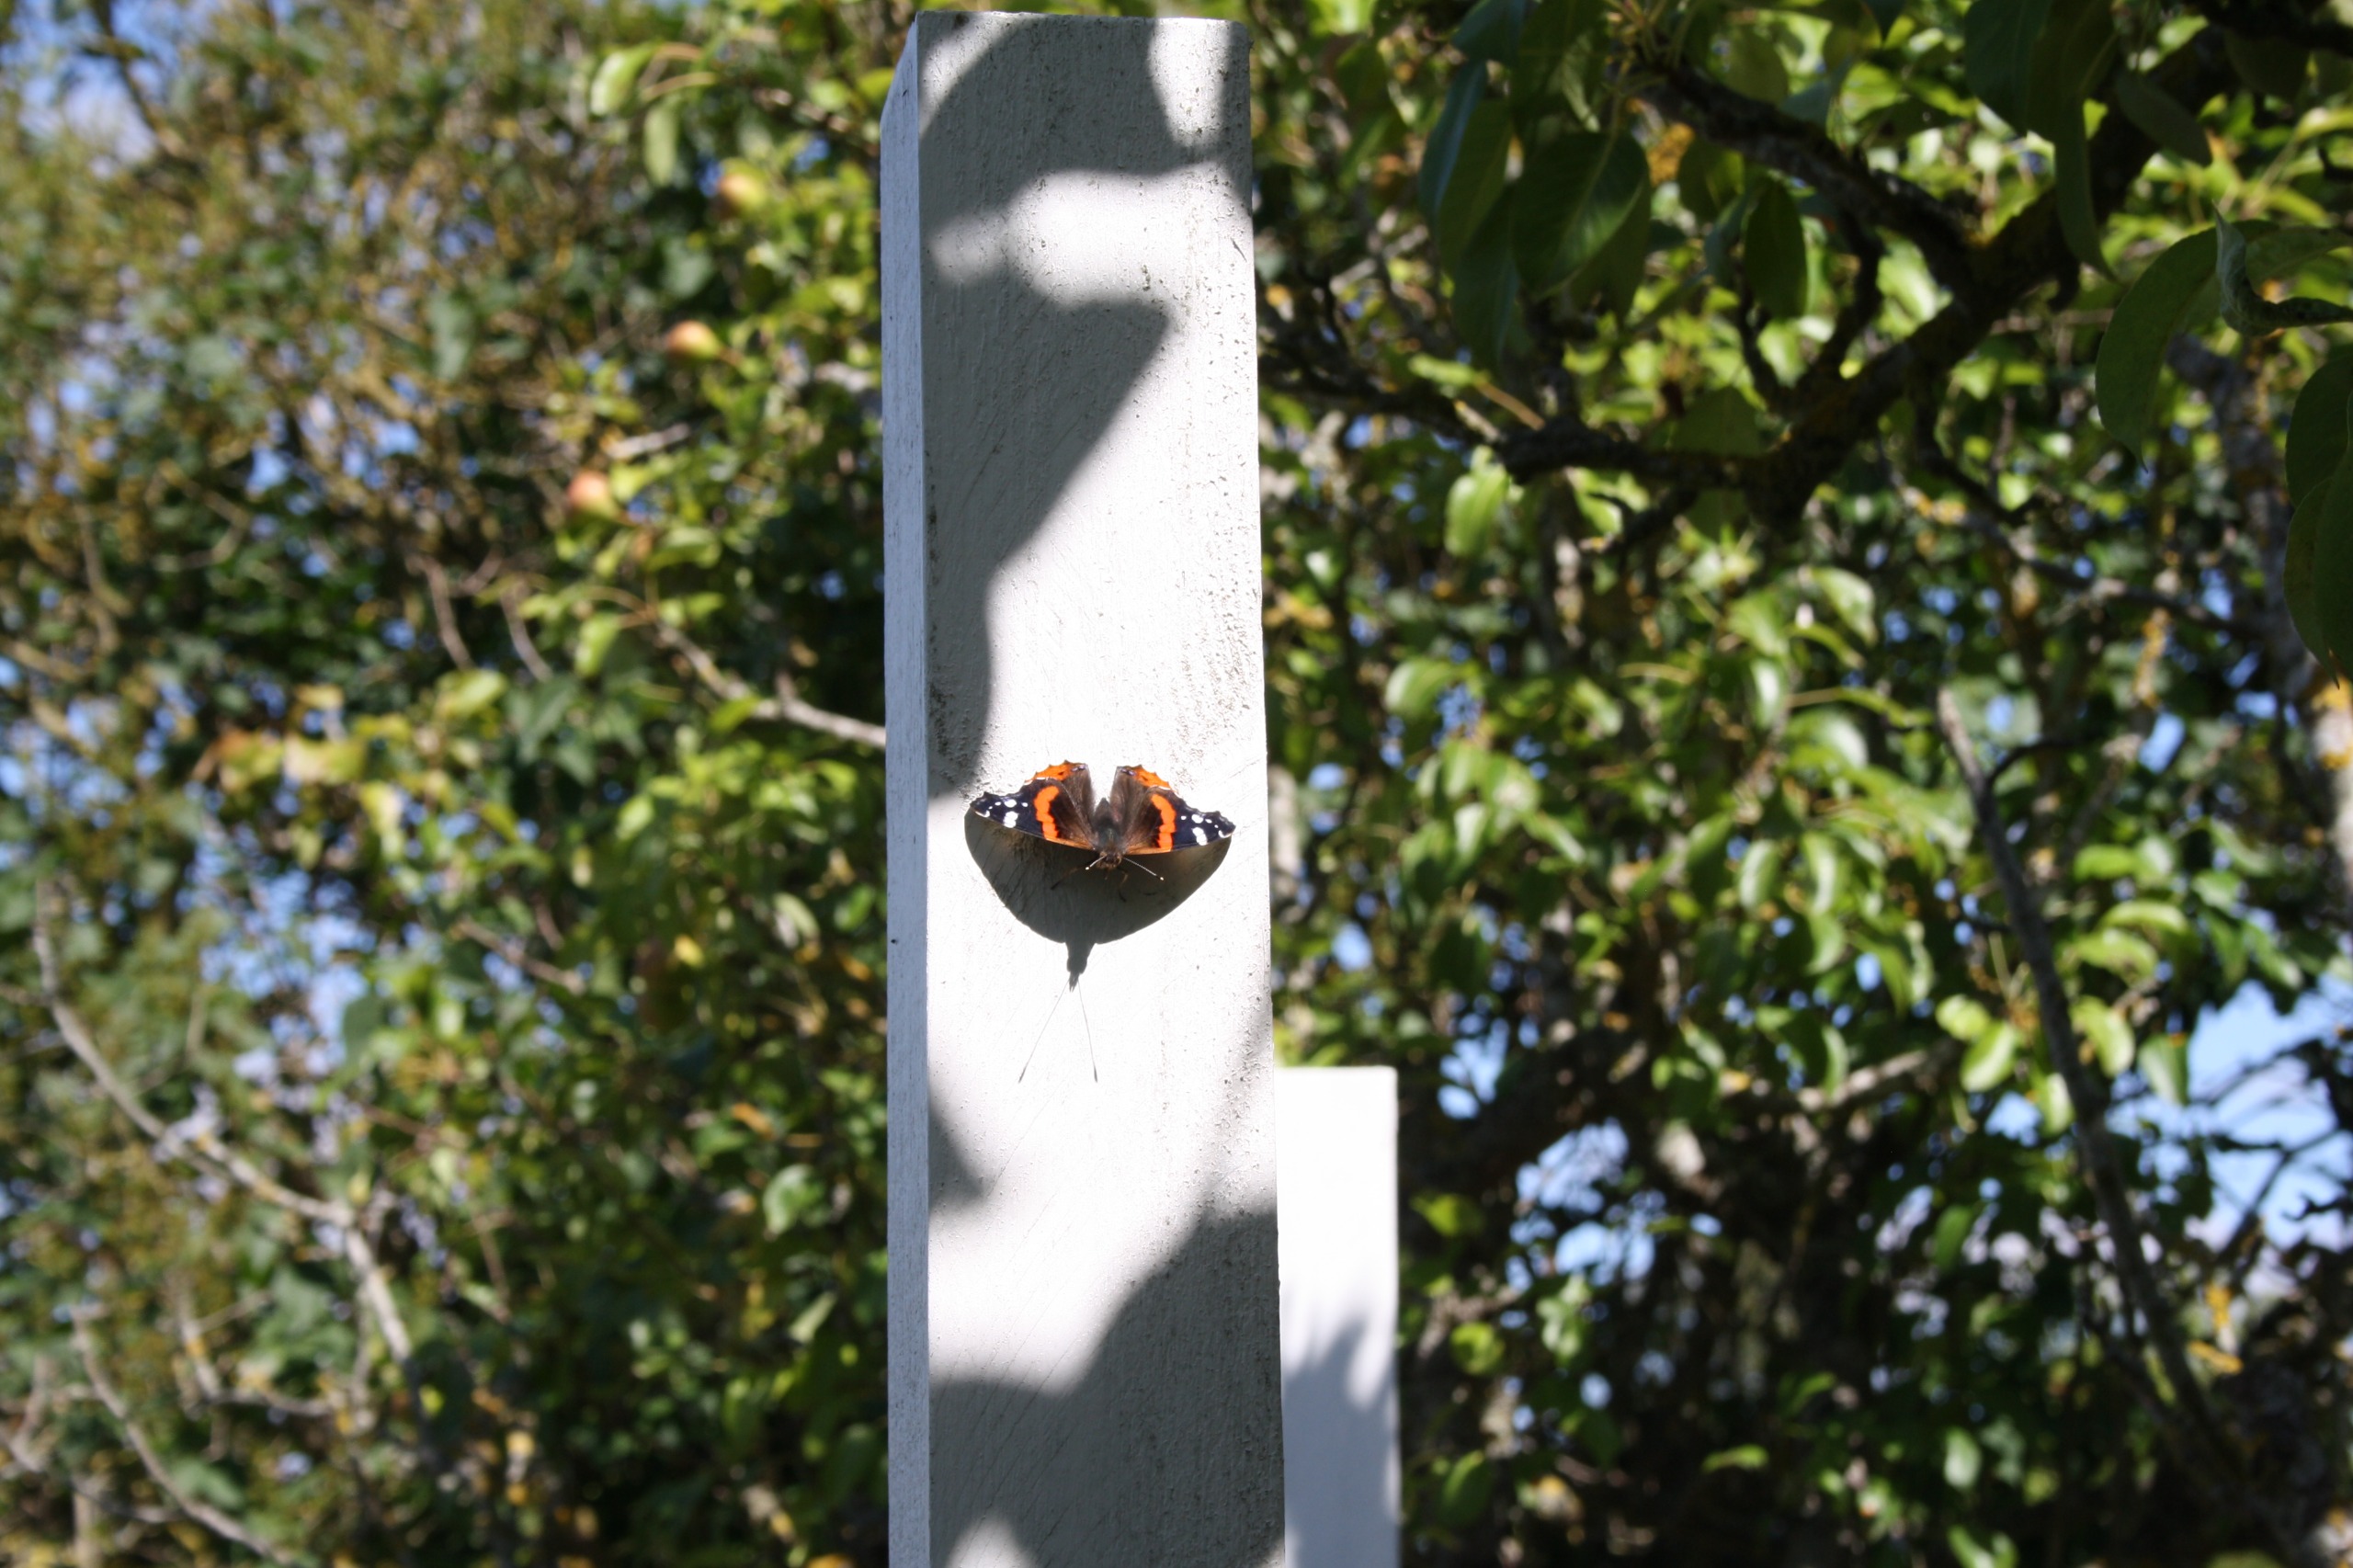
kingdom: Animalia
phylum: Arthropoda
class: Insecta
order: Lepidoptera
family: Nymphalidae
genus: Vanessa
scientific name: Vanessa atalanta
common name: Admiral
